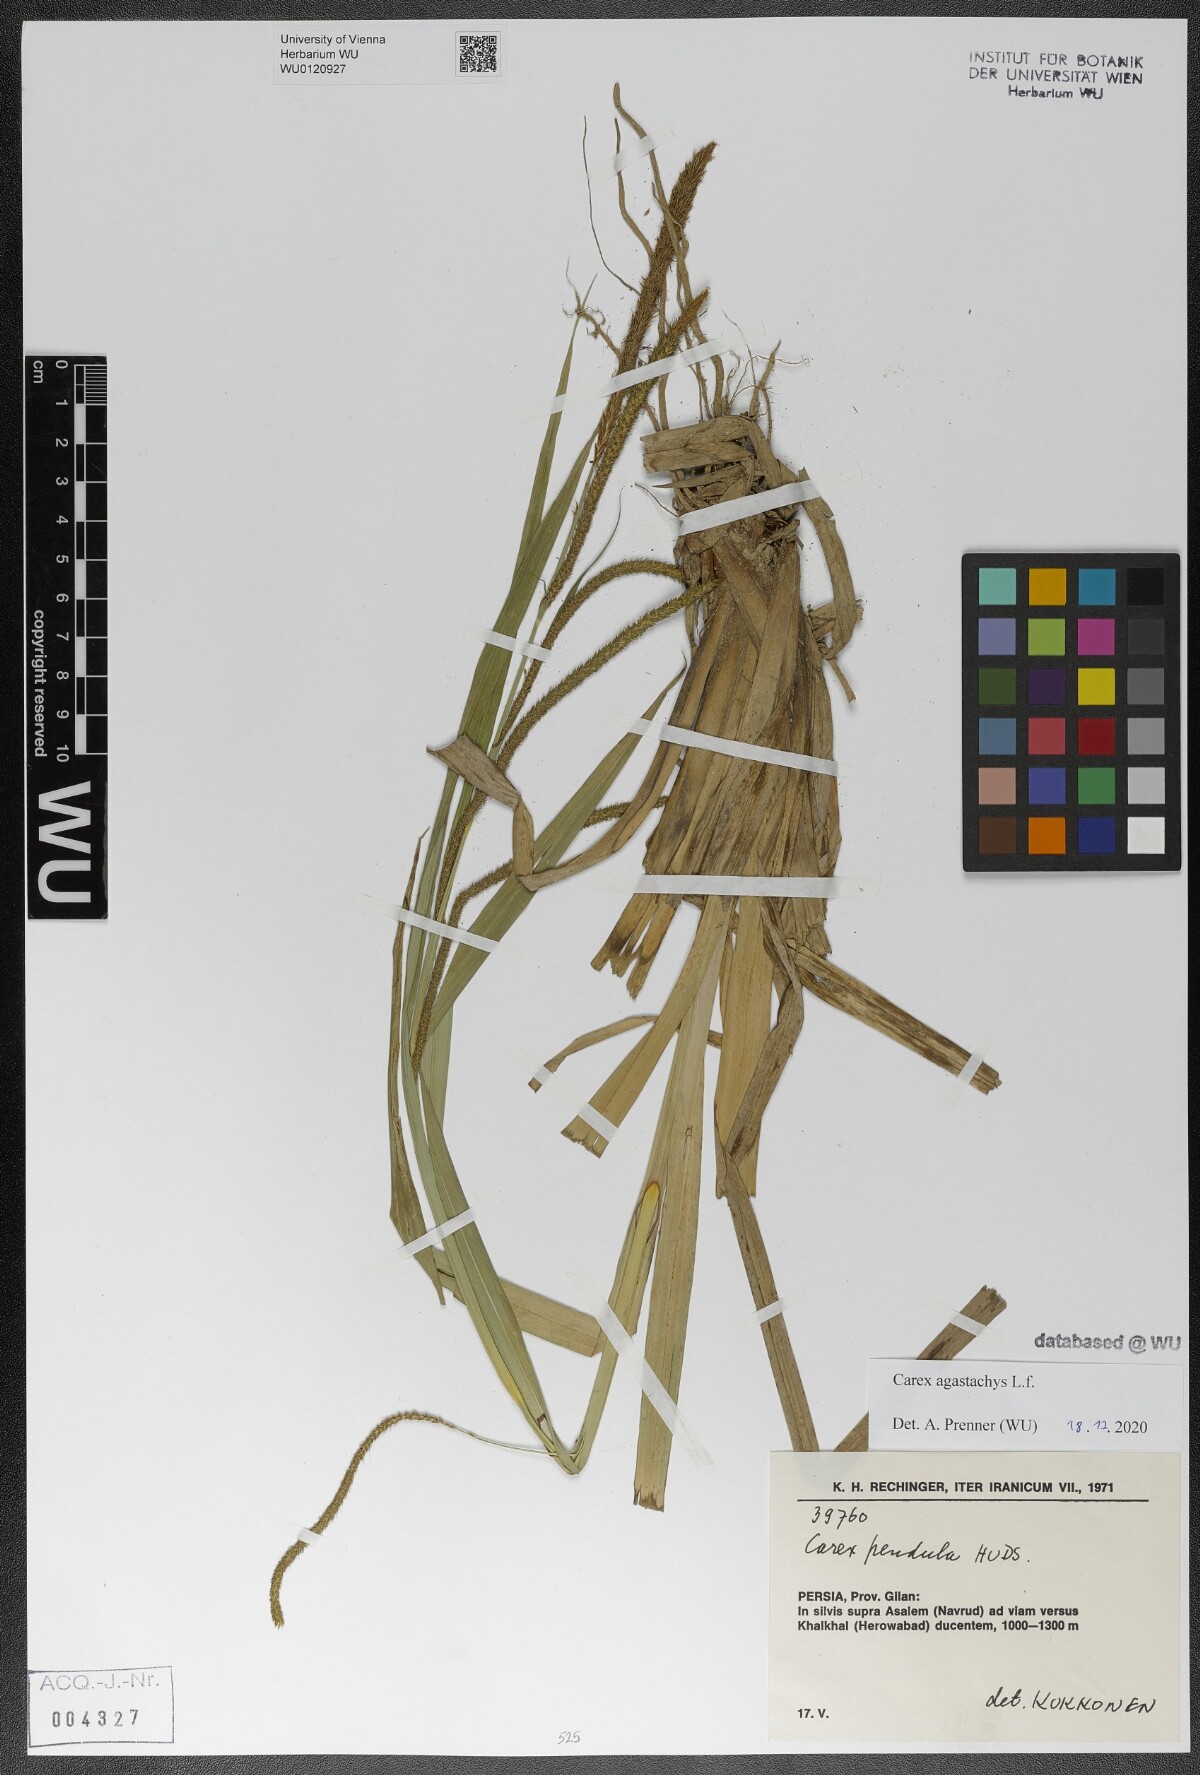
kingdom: Plantae
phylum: Tracheophyta
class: Liliopsida
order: Poales
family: Cyperaceae
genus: Carex
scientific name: Carex pendula
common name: Pendulous sedge
